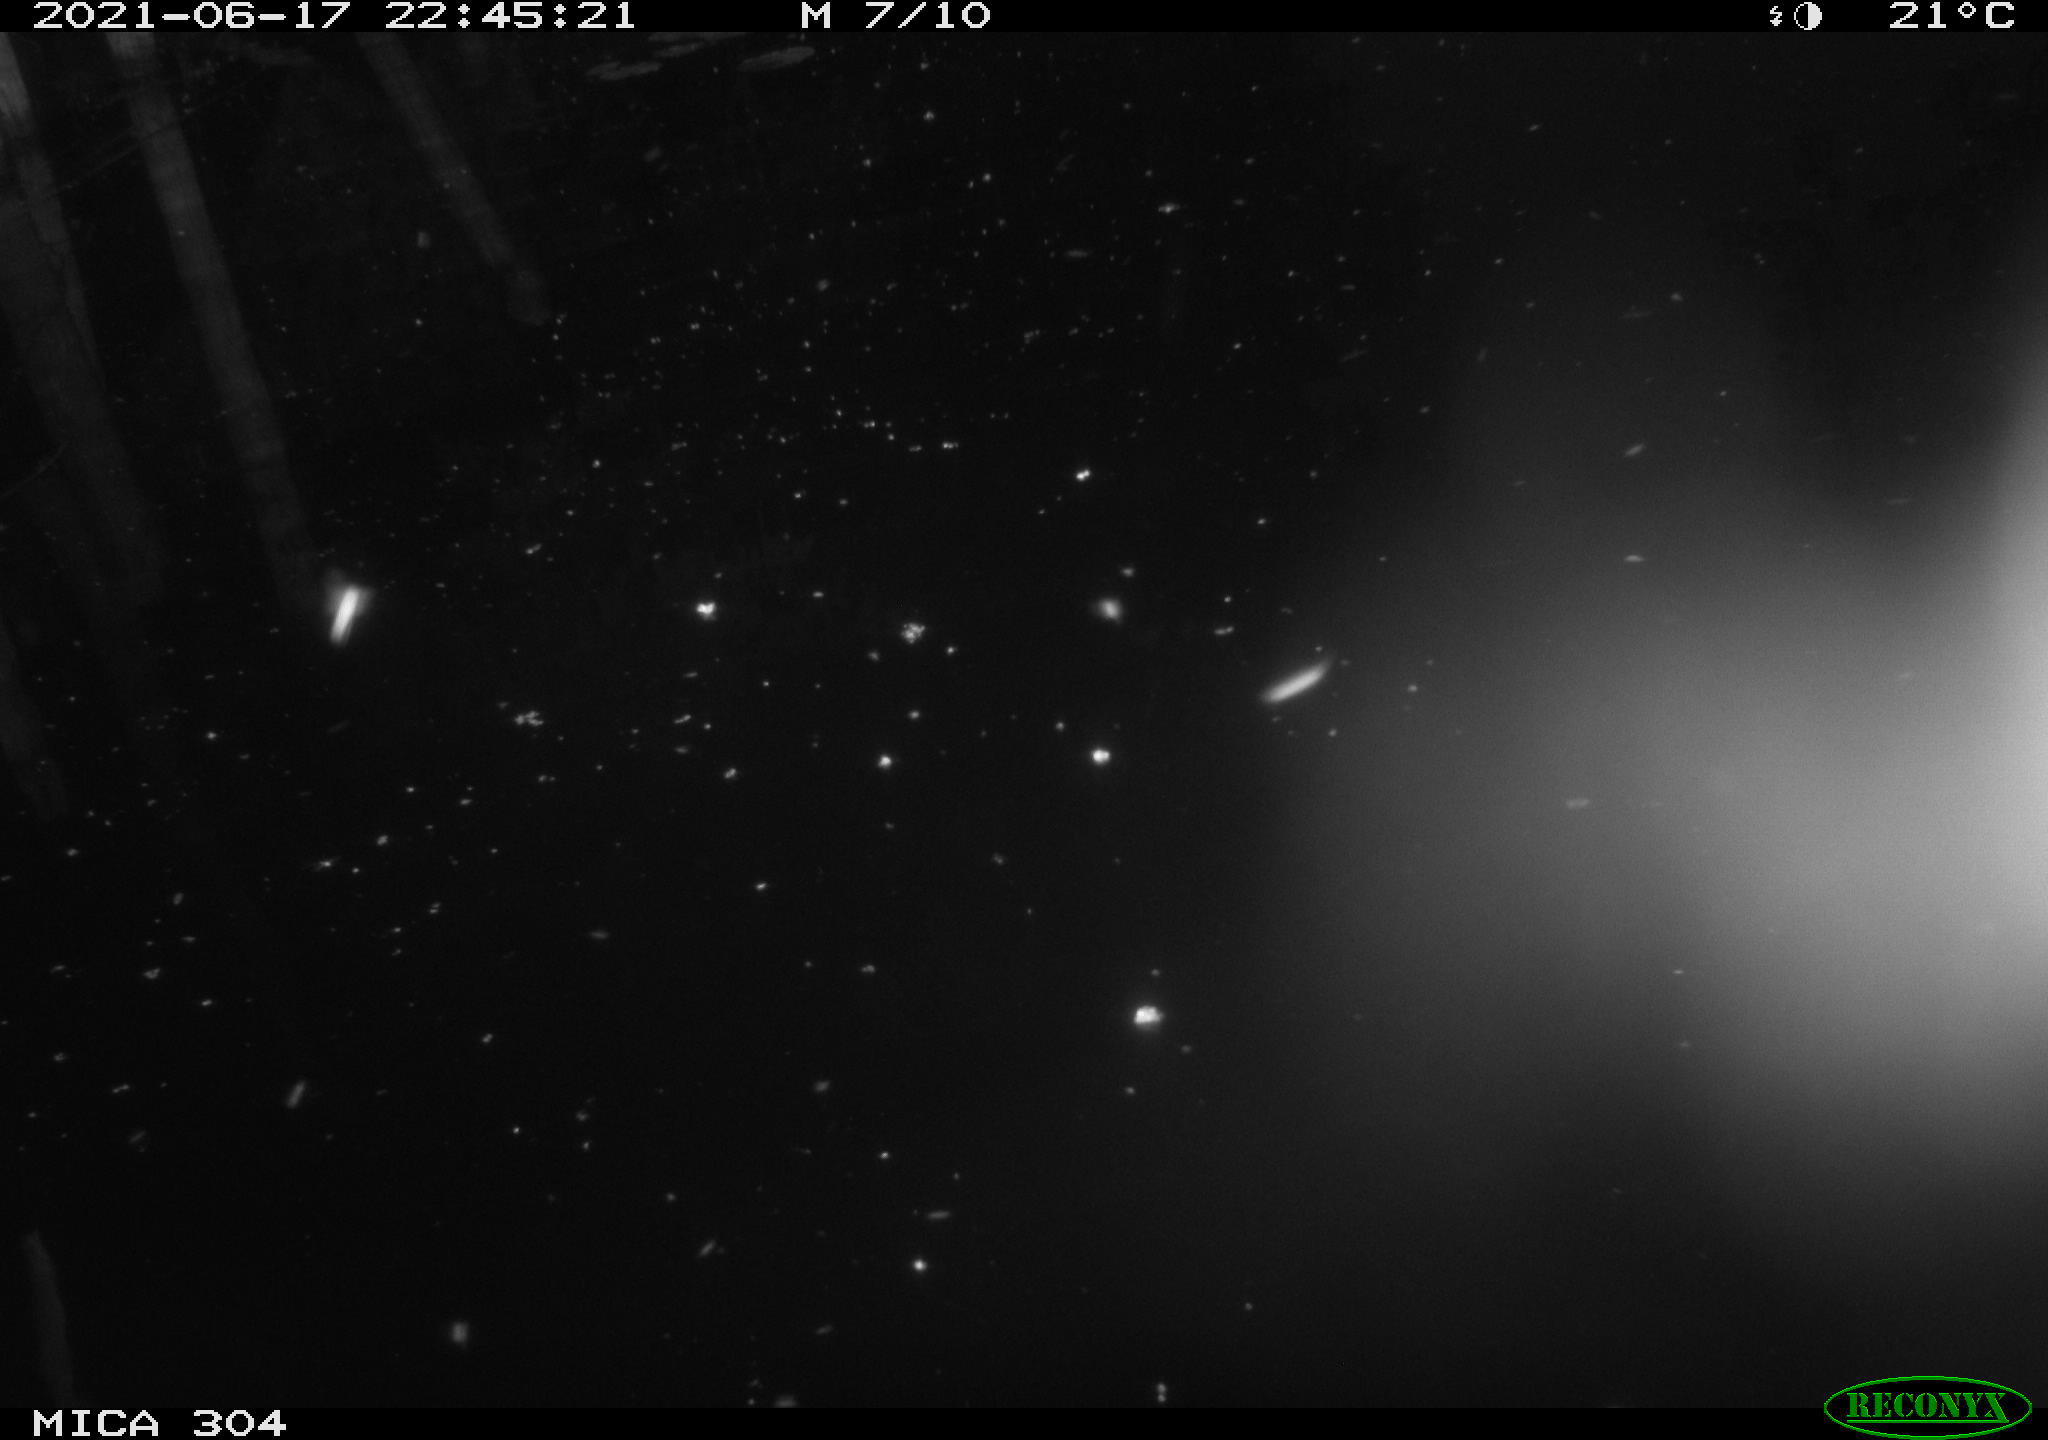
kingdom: Animalia
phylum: Chordata
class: Aves
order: Anseriformes
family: Anatidae
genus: Anas
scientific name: Anas platyrhynchos
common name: Mallard
